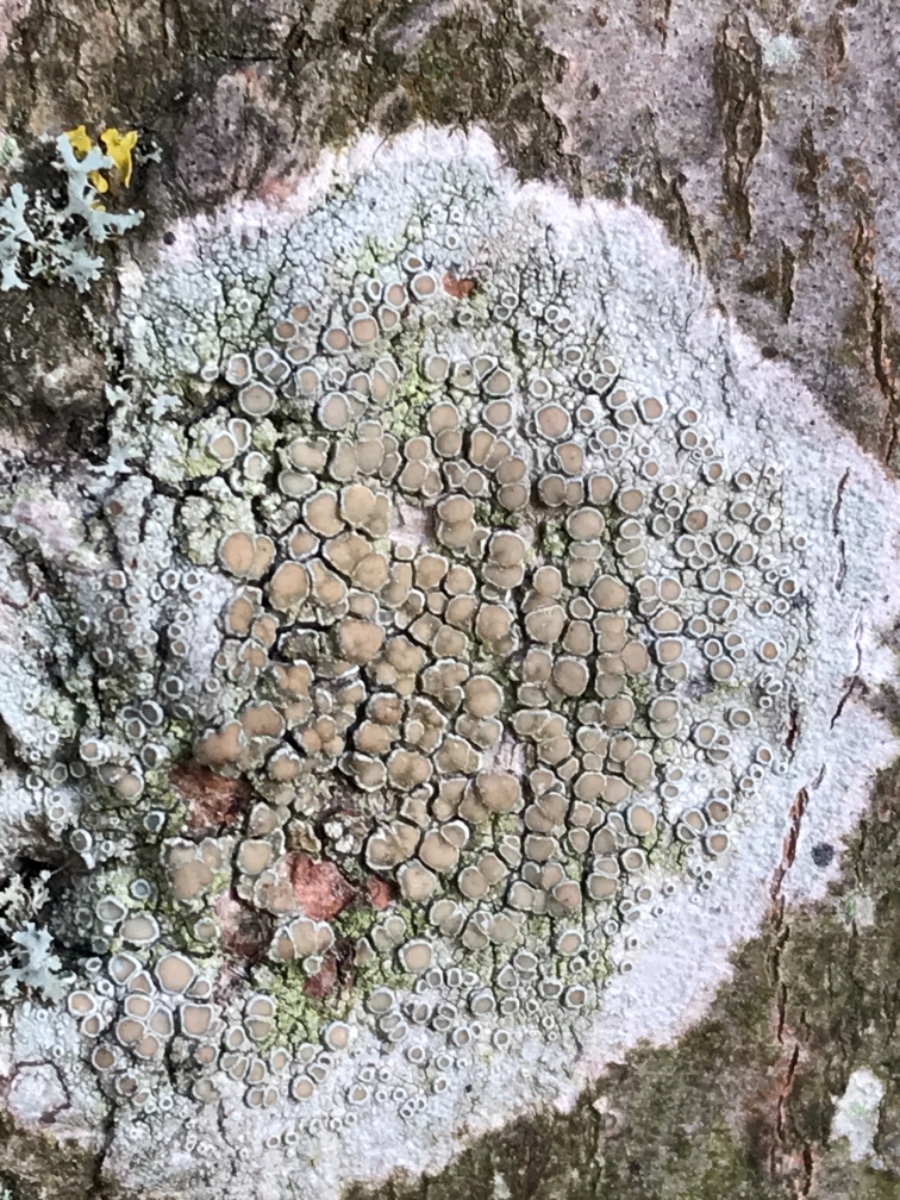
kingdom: Fungi
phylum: Ascomycota
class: Lecanoromycetes
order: Lecanorales
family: Lecanoraceae
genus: Lecanora
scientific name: Lecanora chlarotera
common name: brun kantskivelav
